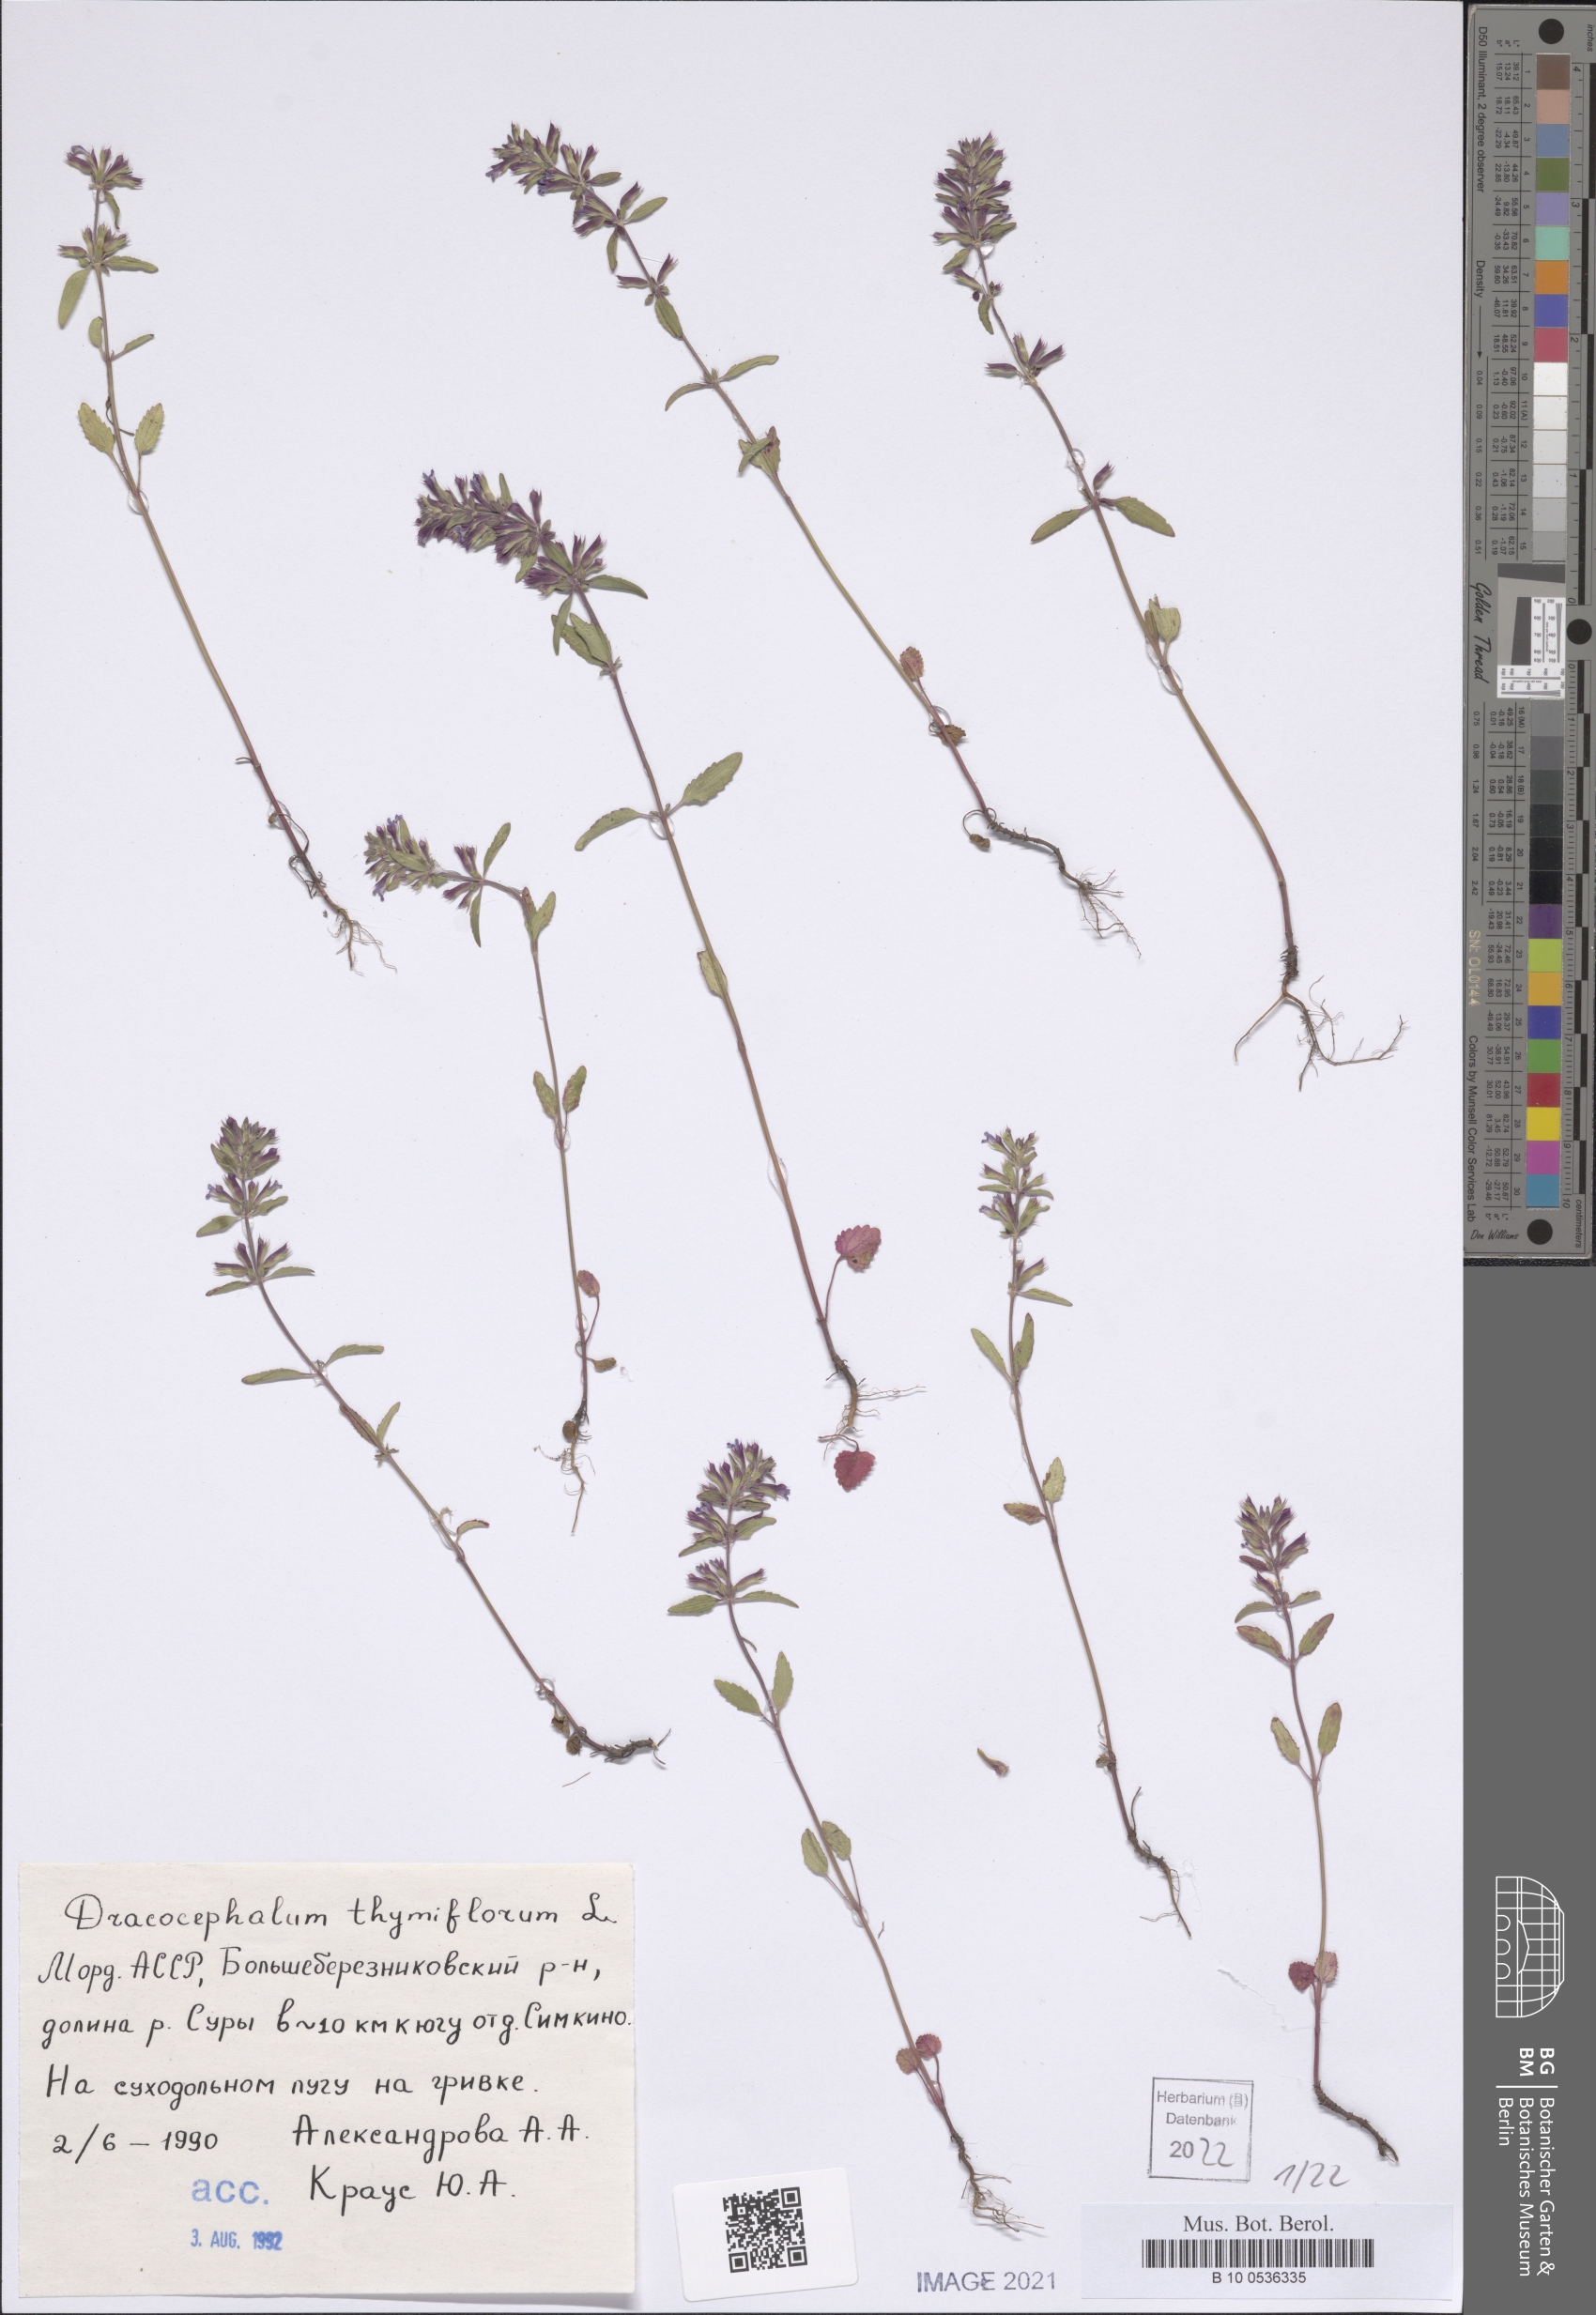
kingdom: Plantae
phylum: Tracheophyta
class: Magnoliopsida
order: Lamiales
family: Lamiaceae
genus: Dracocephalum
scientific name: Dracocephalum thymiflorum
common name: Thymeleaf dragonhead
